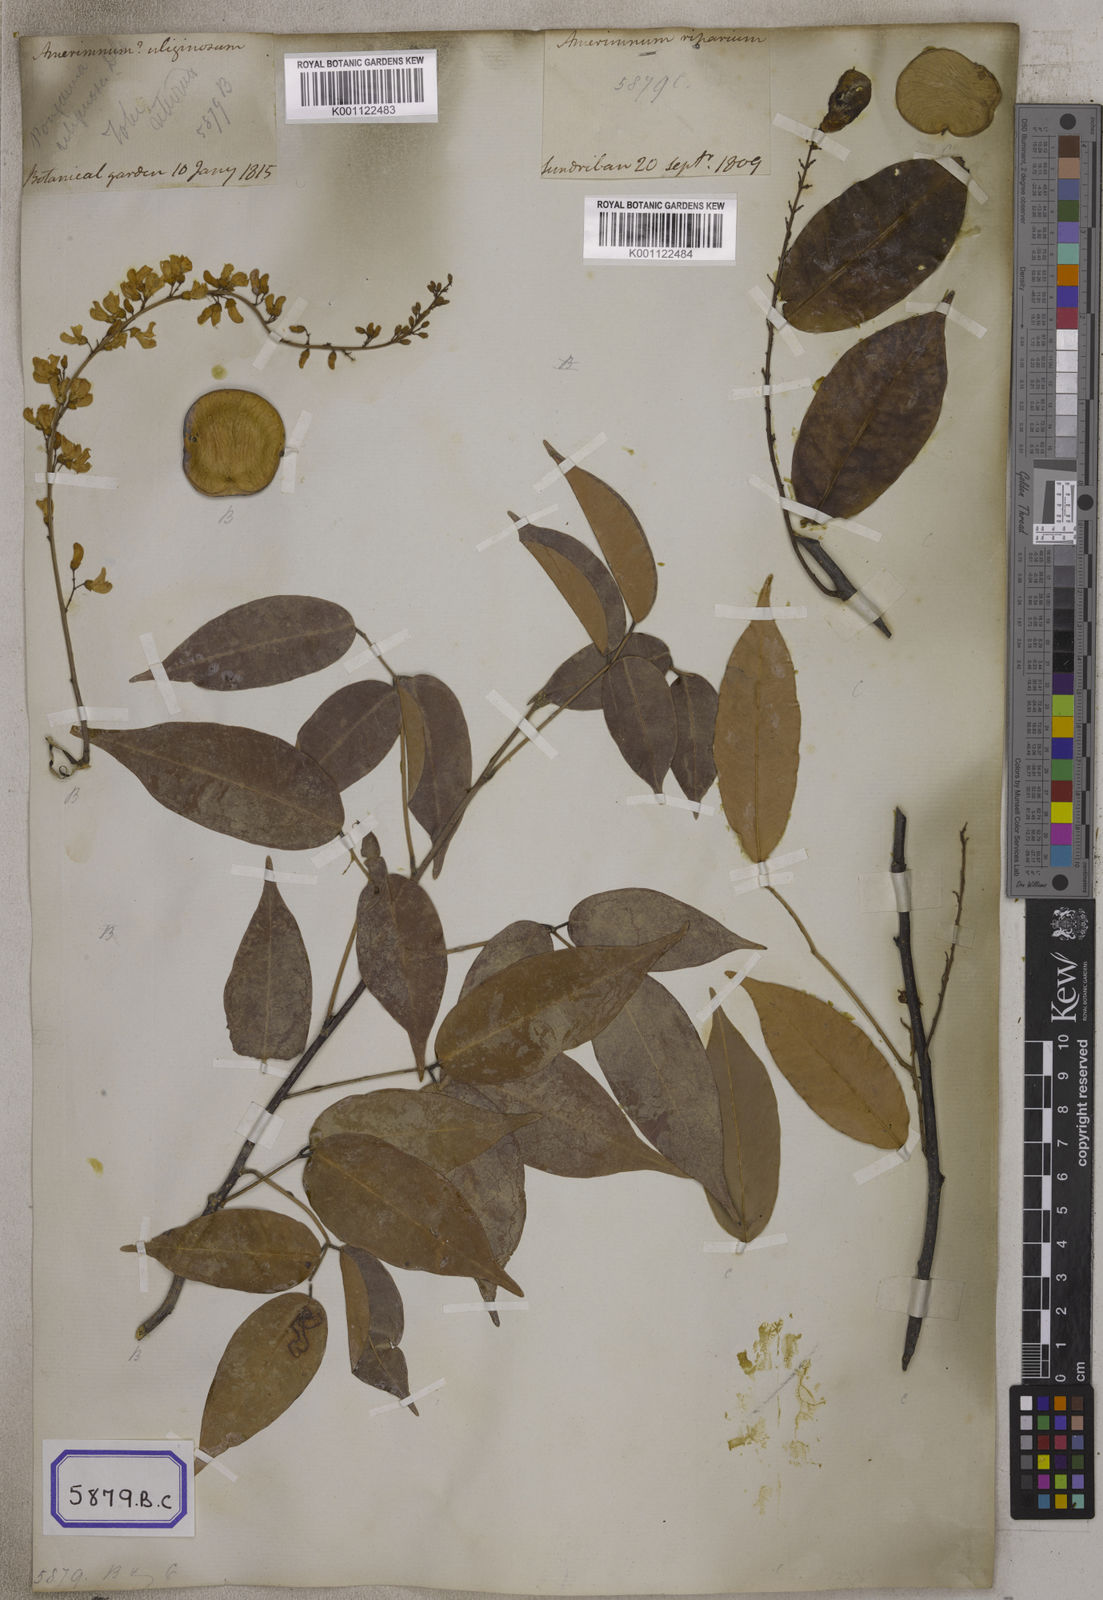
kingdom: Plantae
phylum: Tracheophyta
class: Magnoliopsida
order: Fabales
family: Fabaceae
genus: Derris
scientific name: Derris trifoliata
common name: Three-leaf derris
